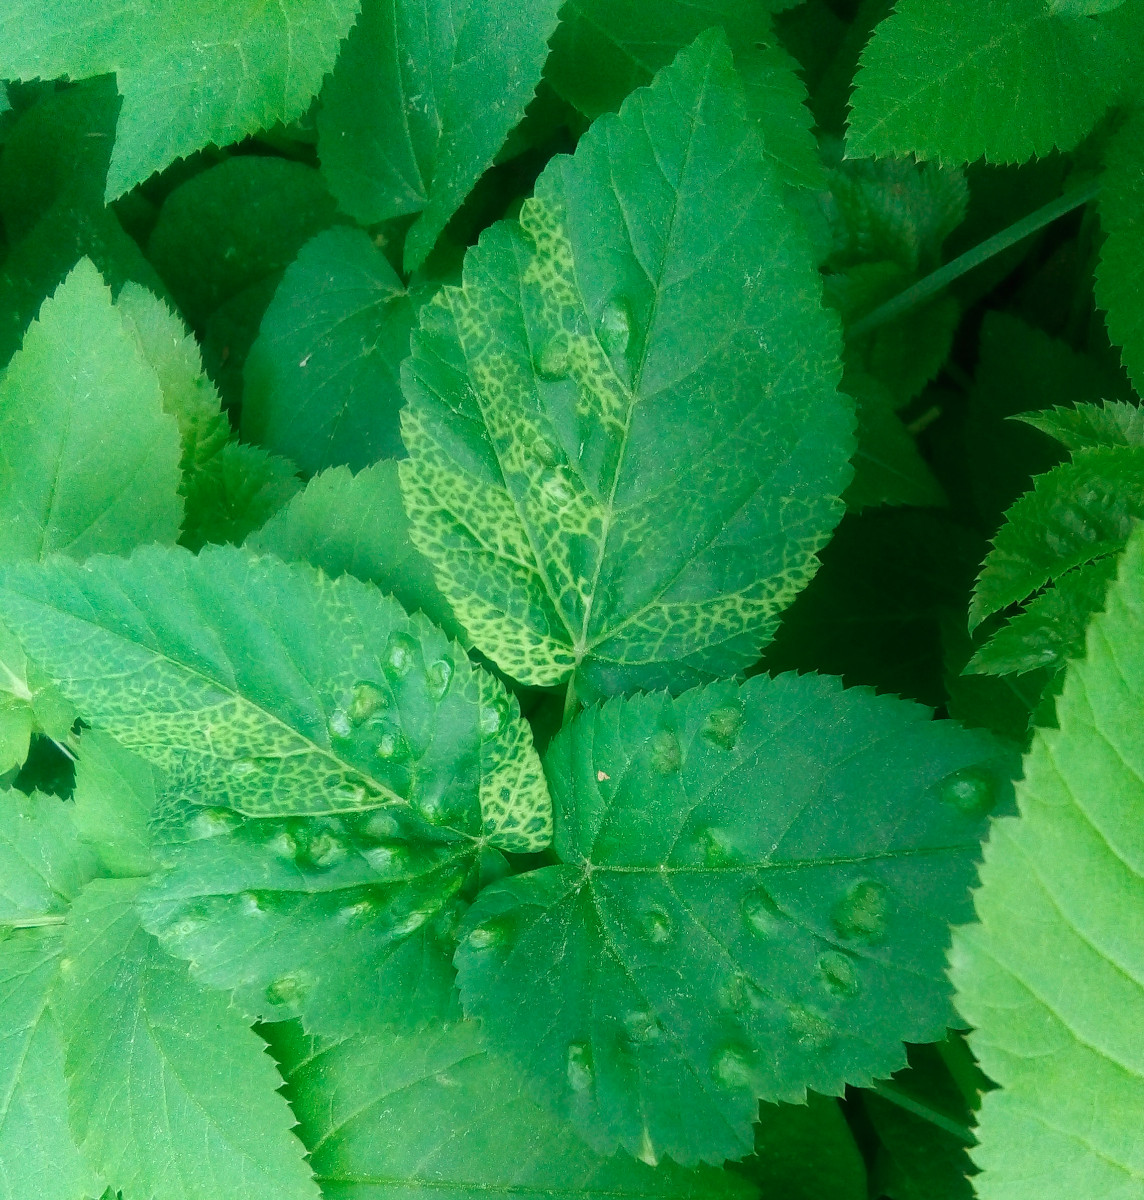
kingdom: Fungi
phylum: Ascomycota
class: Taphrinomycetes
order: Taphrinales
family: Taphrinaceae
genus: Protomyces
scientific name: Protomyces macrosporus
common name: skvalderkål-vablesæk
